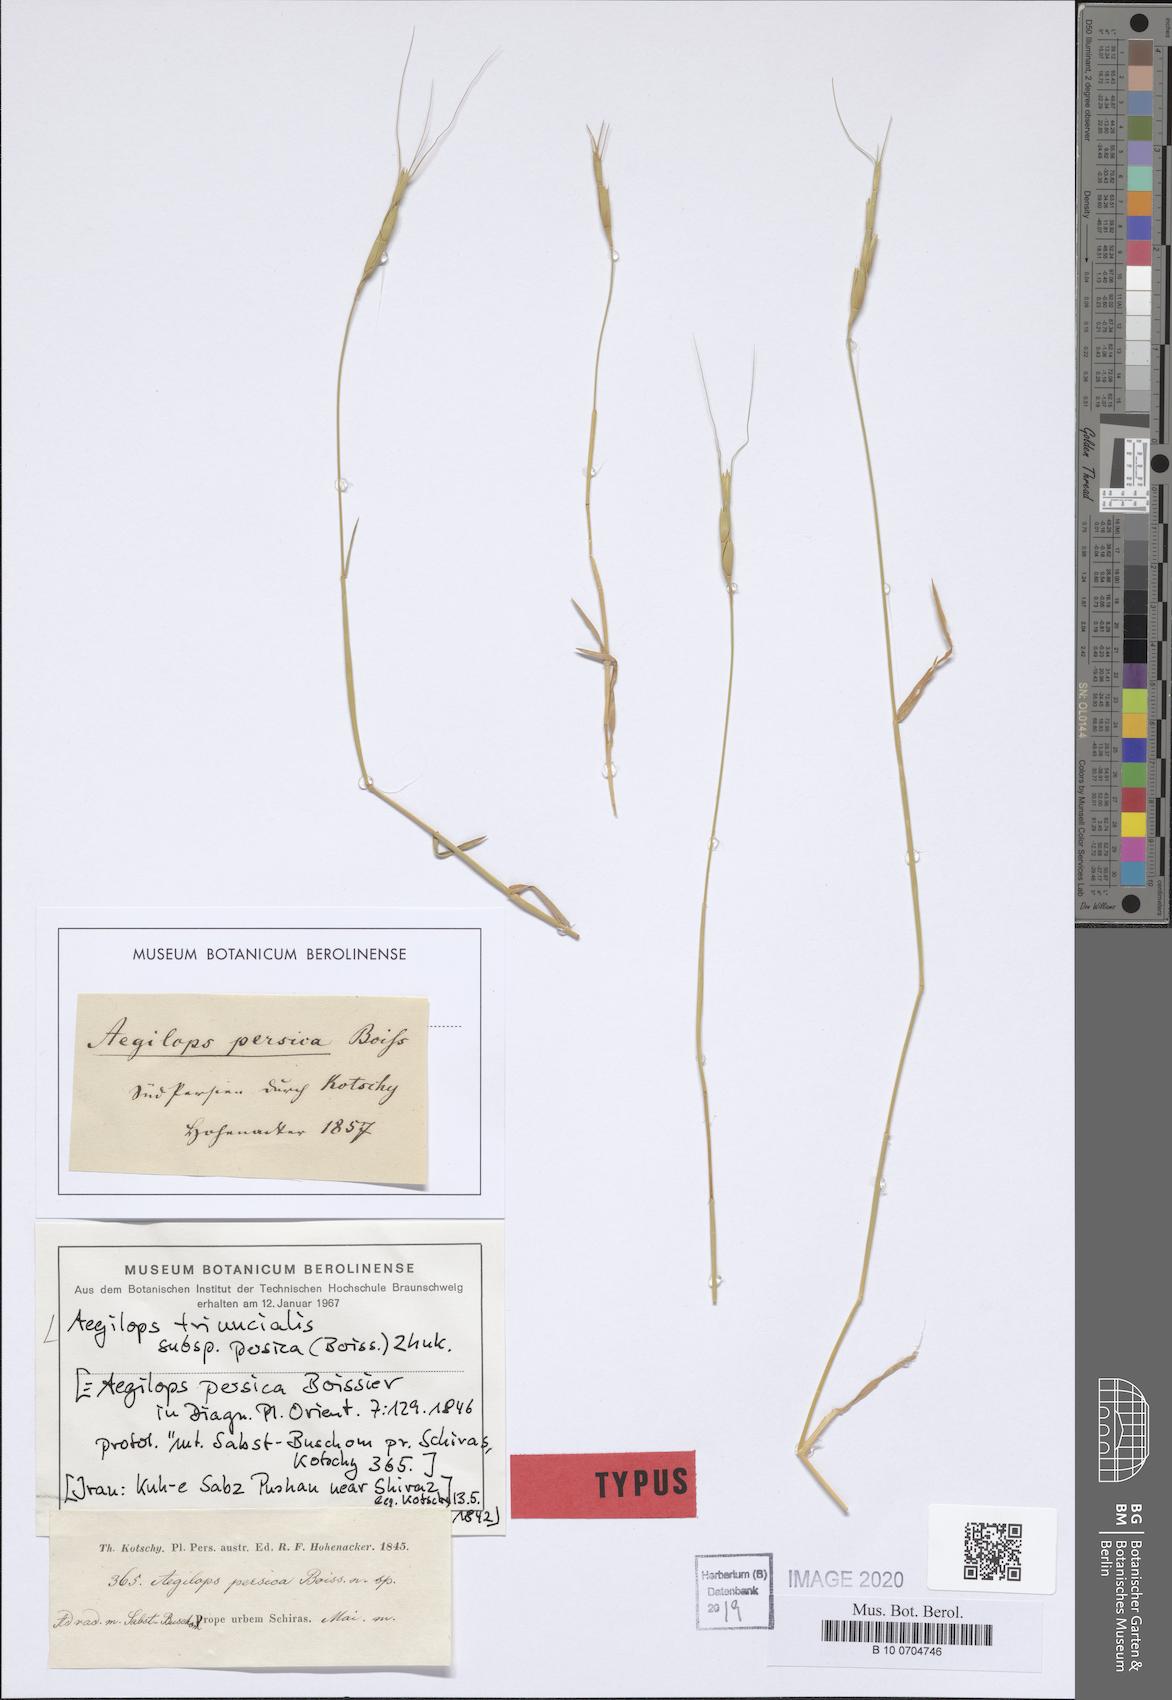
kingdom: Plantae
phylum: Tracheophyta
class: Liliopsida
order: Poales
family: Poaceae
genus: Aegilops
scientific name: Aegilops triuncialis
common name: Barb goat grass
